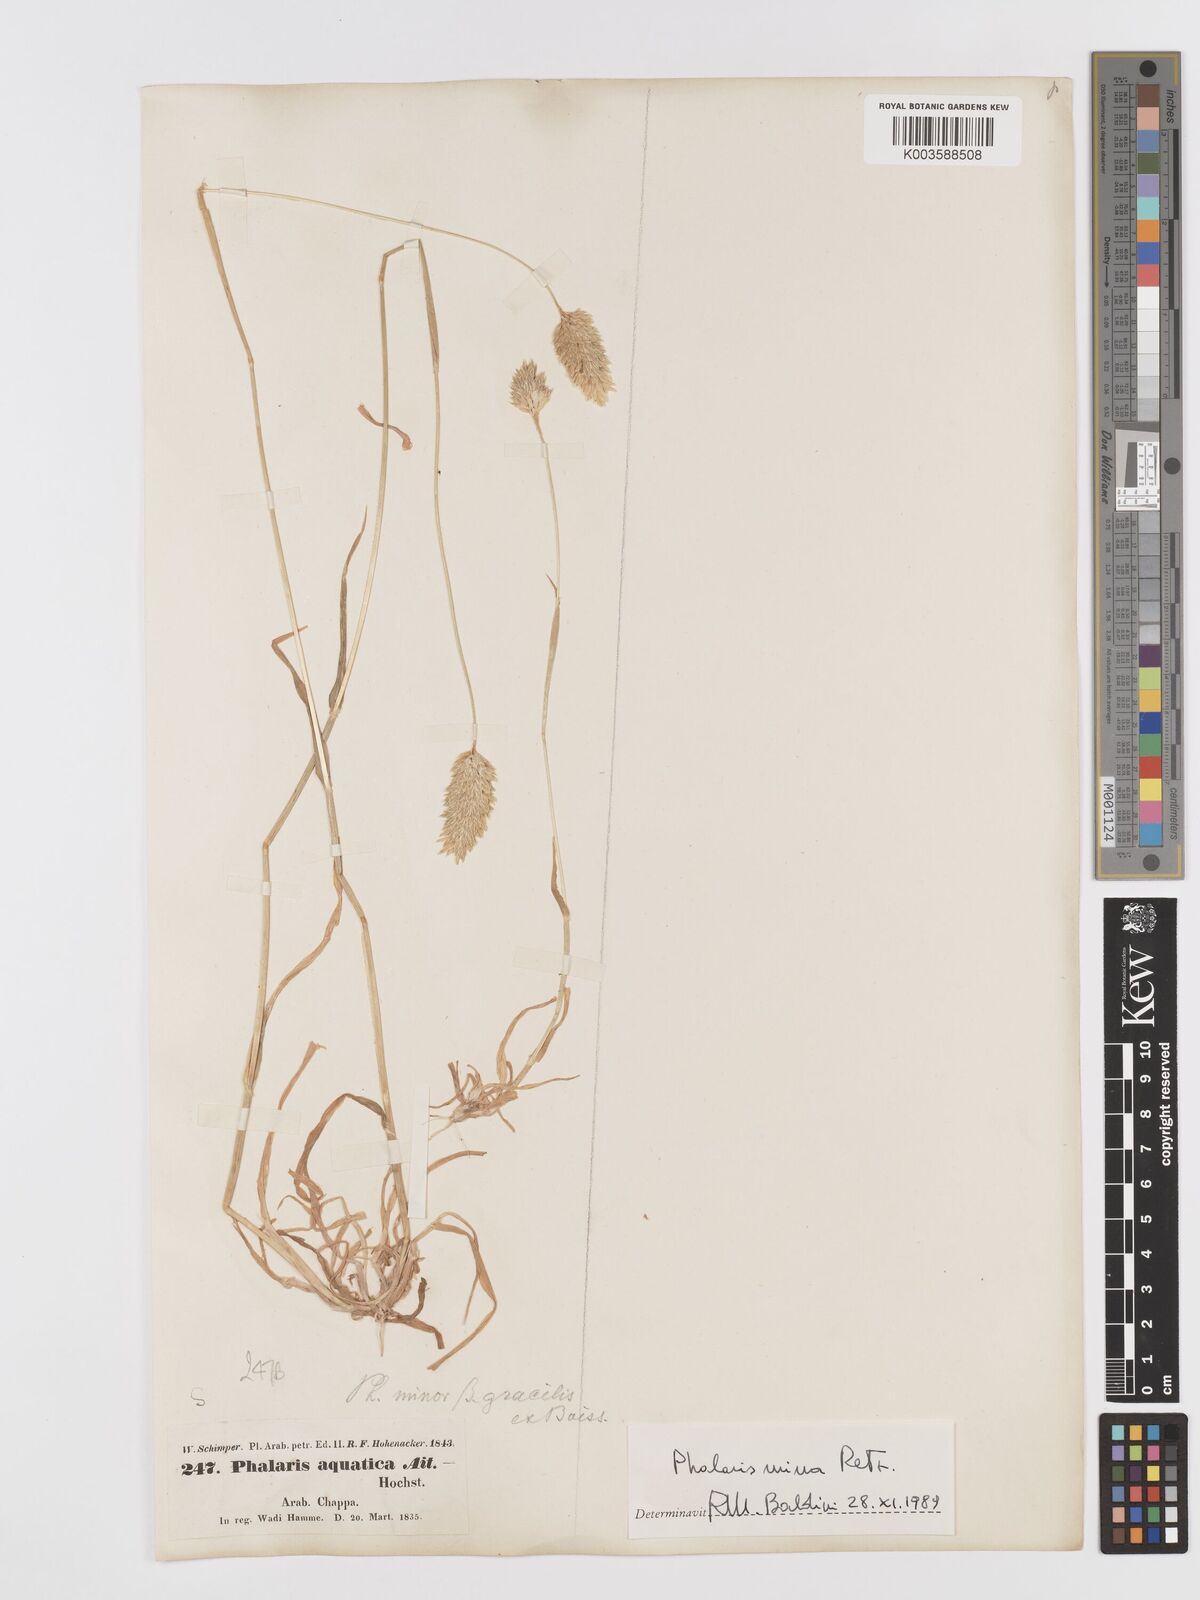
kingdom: Plantae
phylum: Tracheophyta
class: Liliopsida
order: Poales
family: Poaceae
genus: Phalaris
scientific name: Phalaris minor
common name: Littleseed canarygrass
